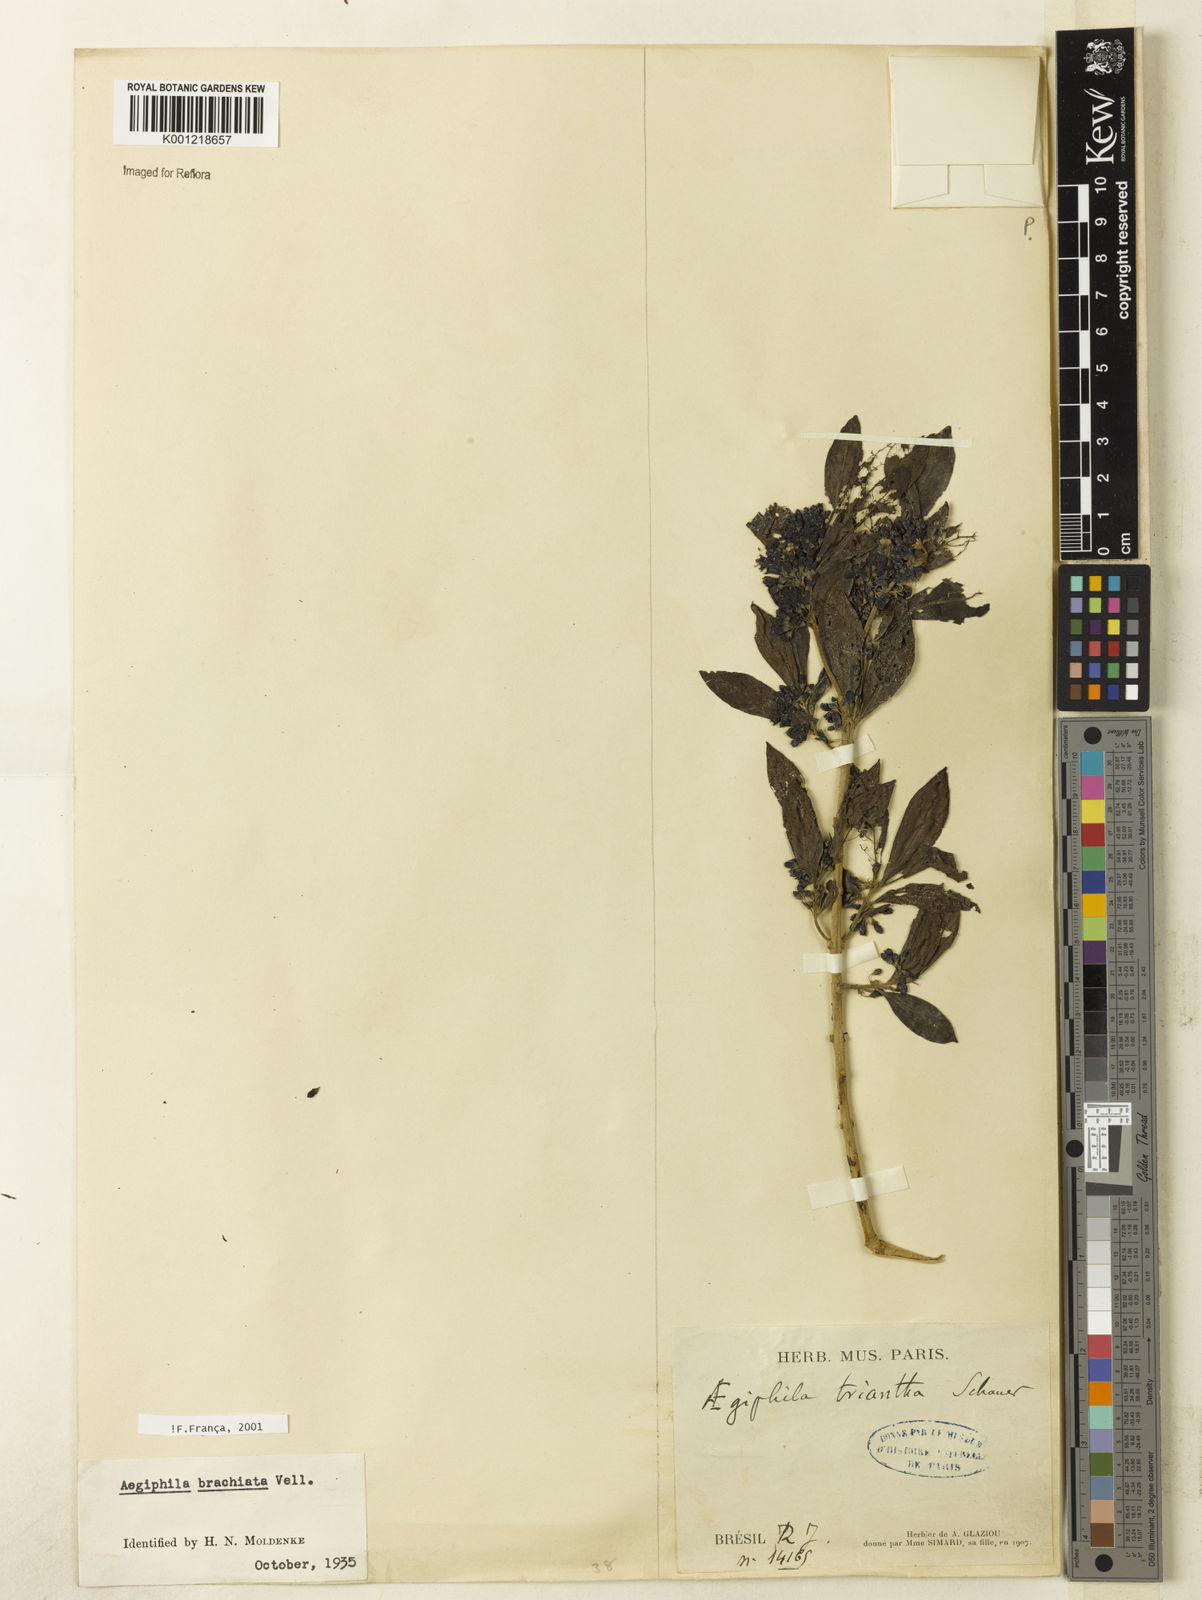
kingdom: Plantae
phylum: Tracheophyta
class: Magnoliopsida
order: Lamiales
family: Lamiaceae
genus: Aegiphila
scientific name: Aegiphila brachiata
